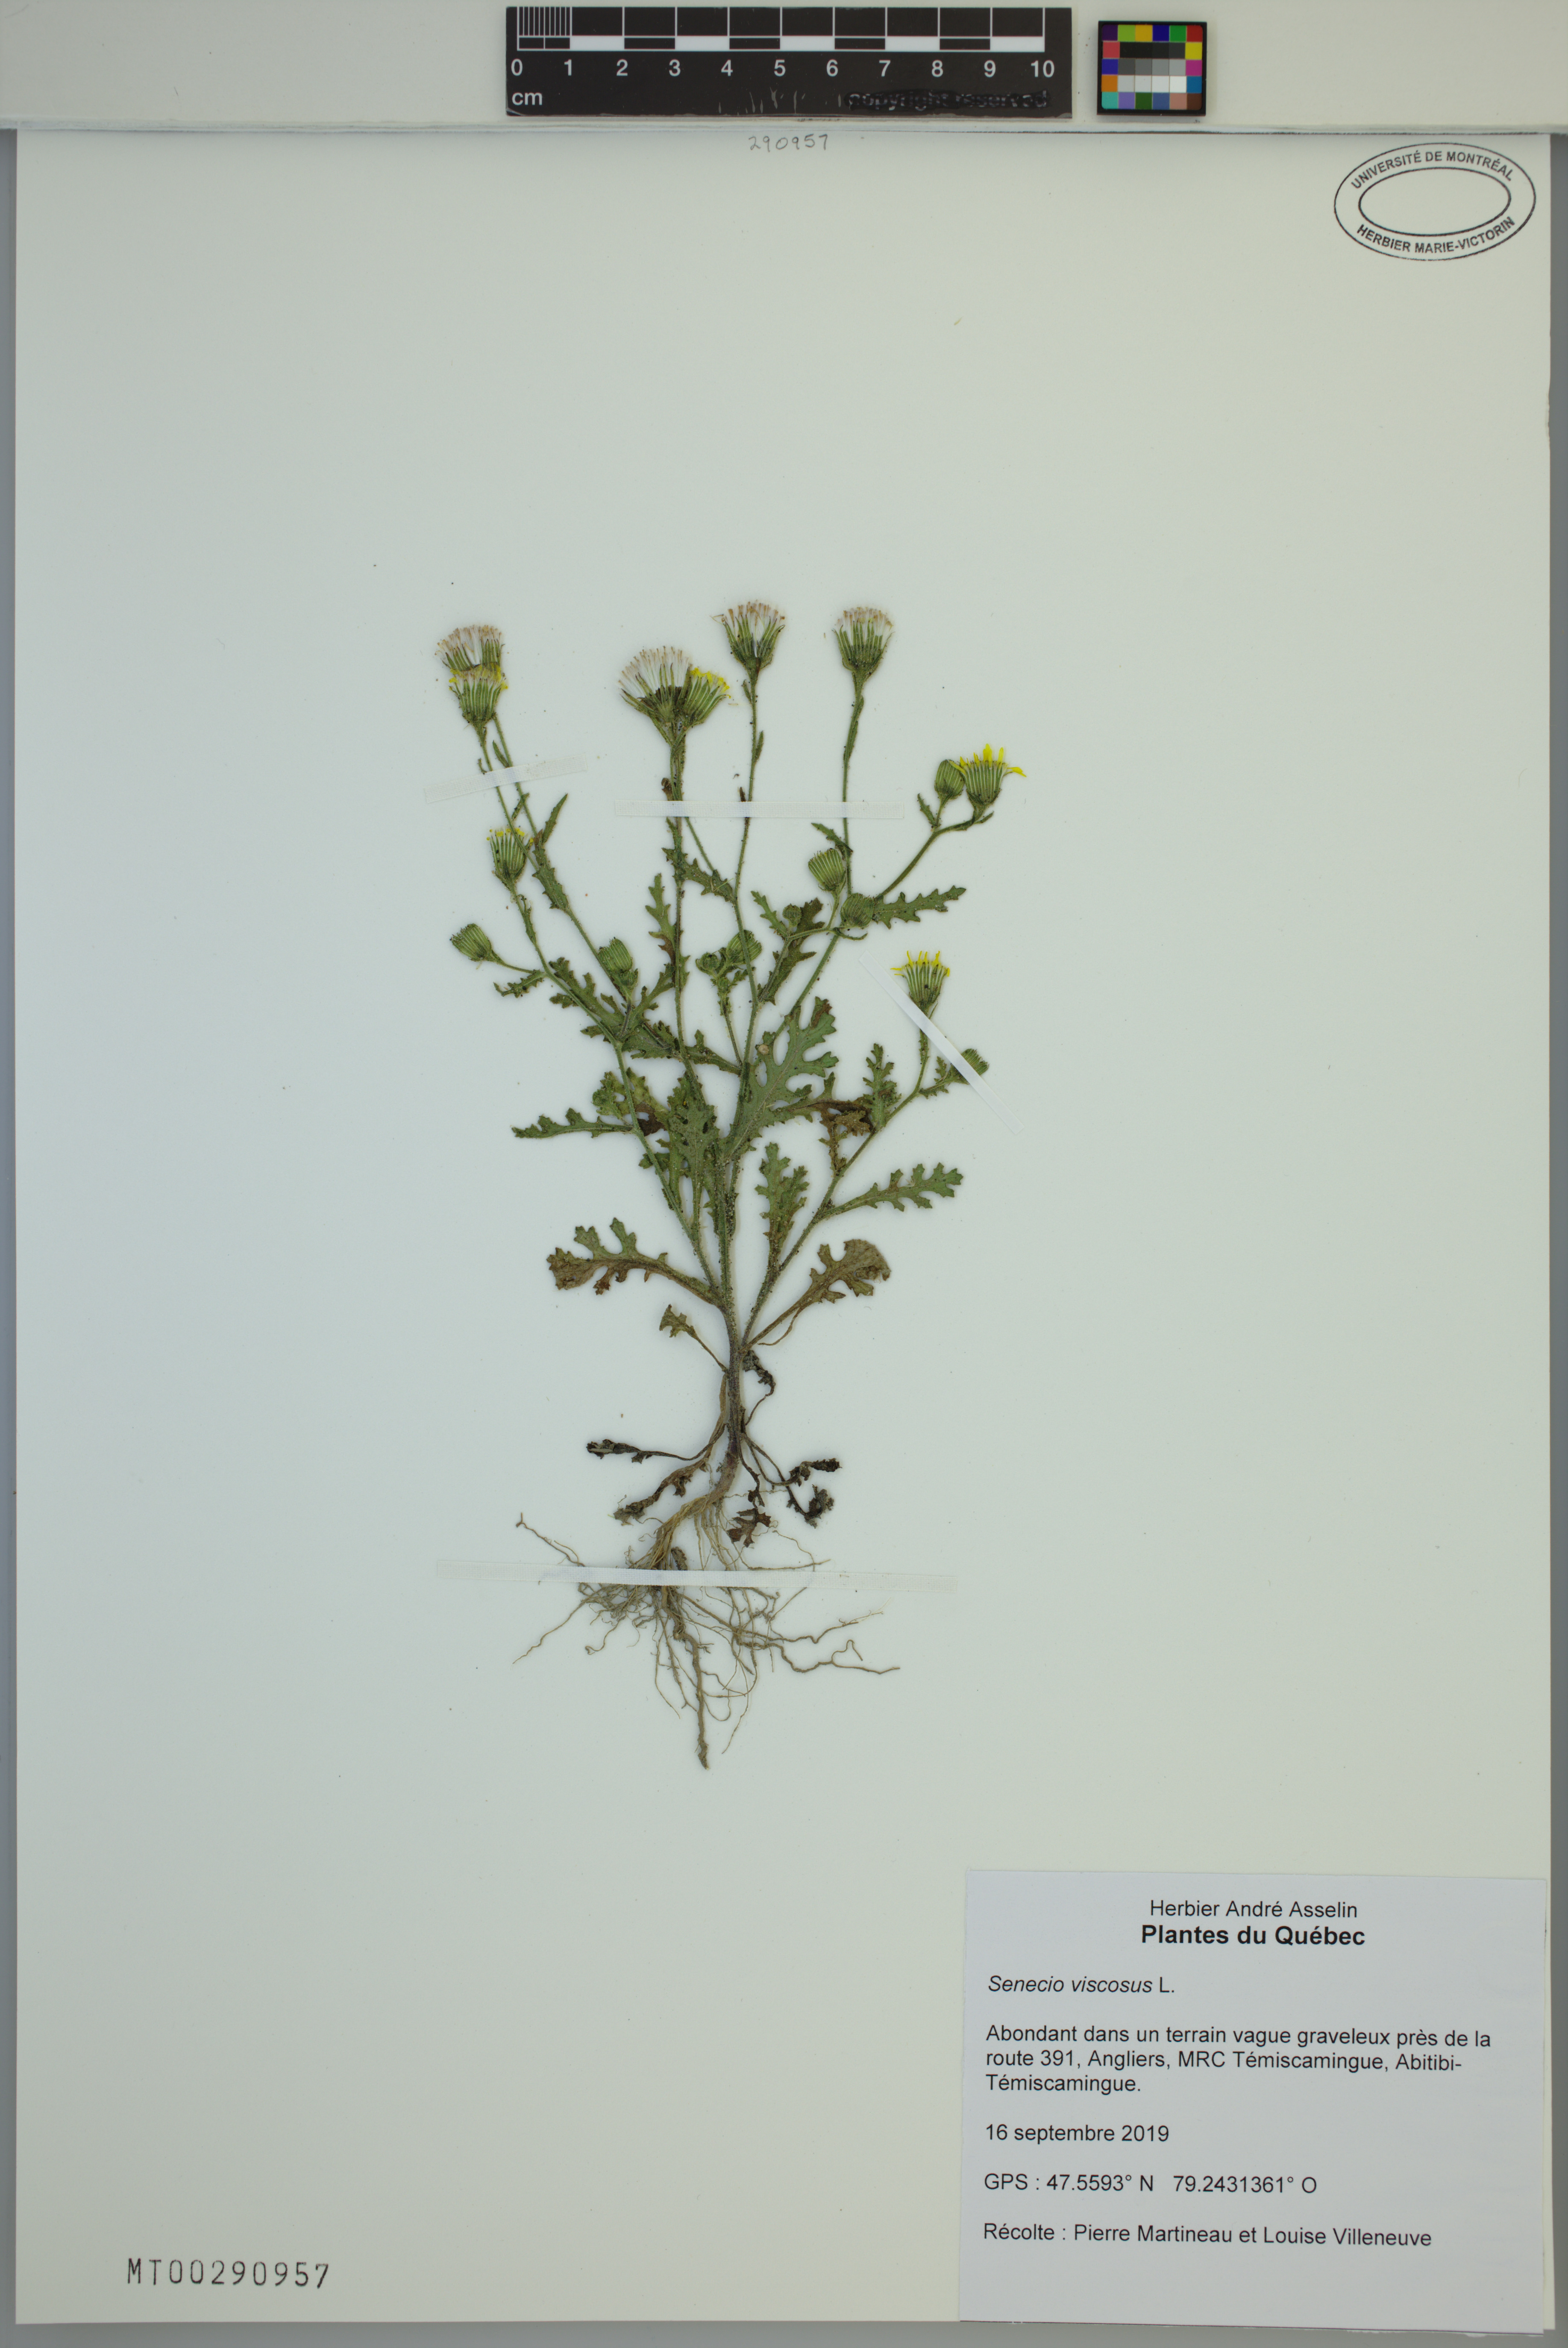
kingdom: Plantae
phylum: Tracheophyta
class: Magnoliopsida
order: Asterales
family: Asteraceae
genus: Senecio
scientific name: Senecio viscosus
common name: Sticky groundsel
